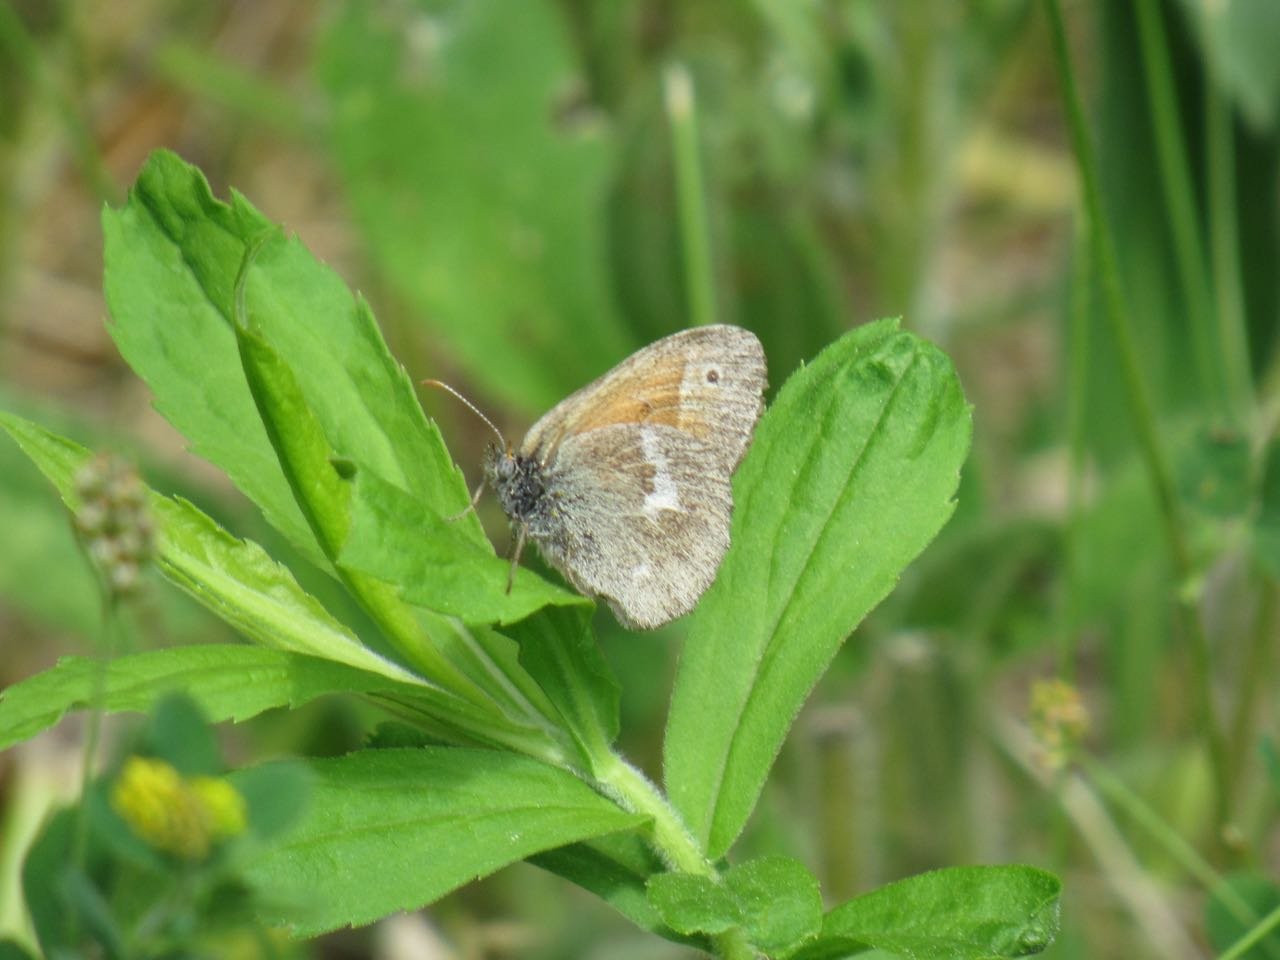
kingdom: Animalia
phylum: Arthropoda
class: Insecta
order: Lepidoptera
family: Nymphalidae
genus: Coenonympha
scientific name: Coenonympha tullia
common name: Large Heath
